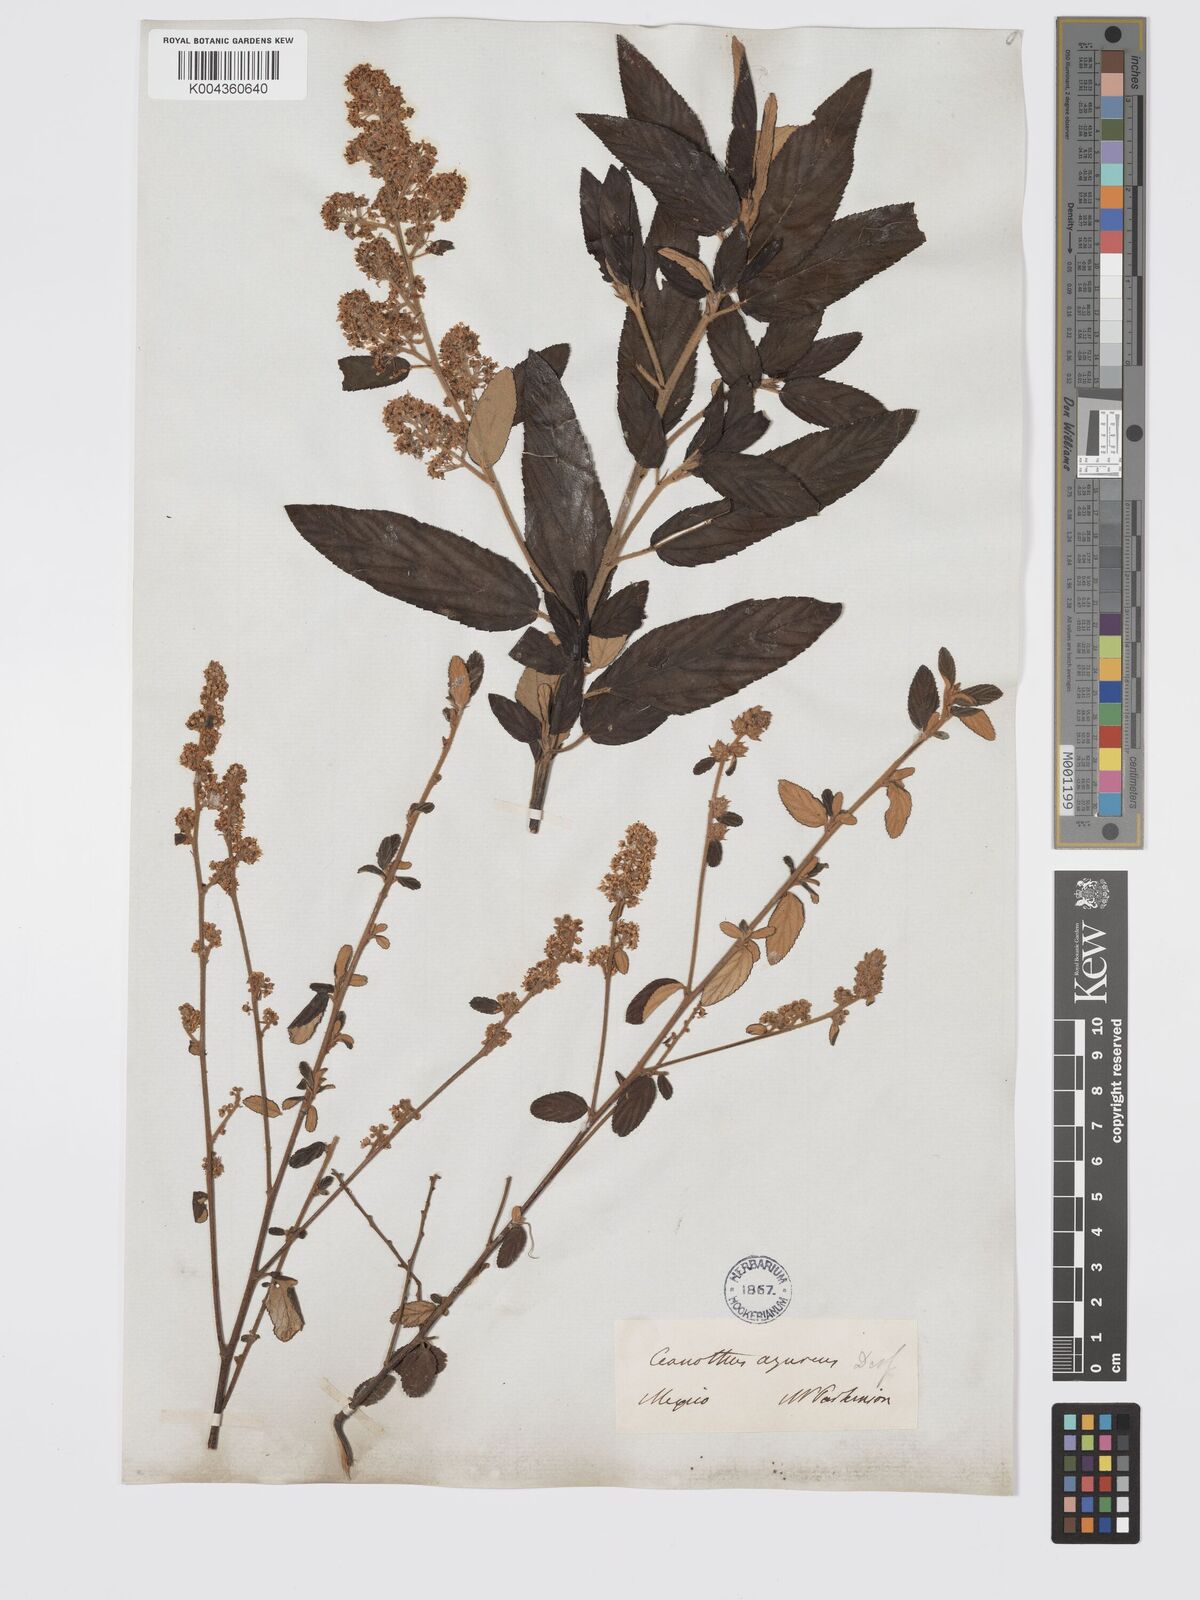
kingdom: Plantae
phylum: Tracheophyta
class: Magnoliopsida
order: Rosales
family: Rhamnaceae
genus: Ceanothus
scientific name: Ceanothus caeruleus
